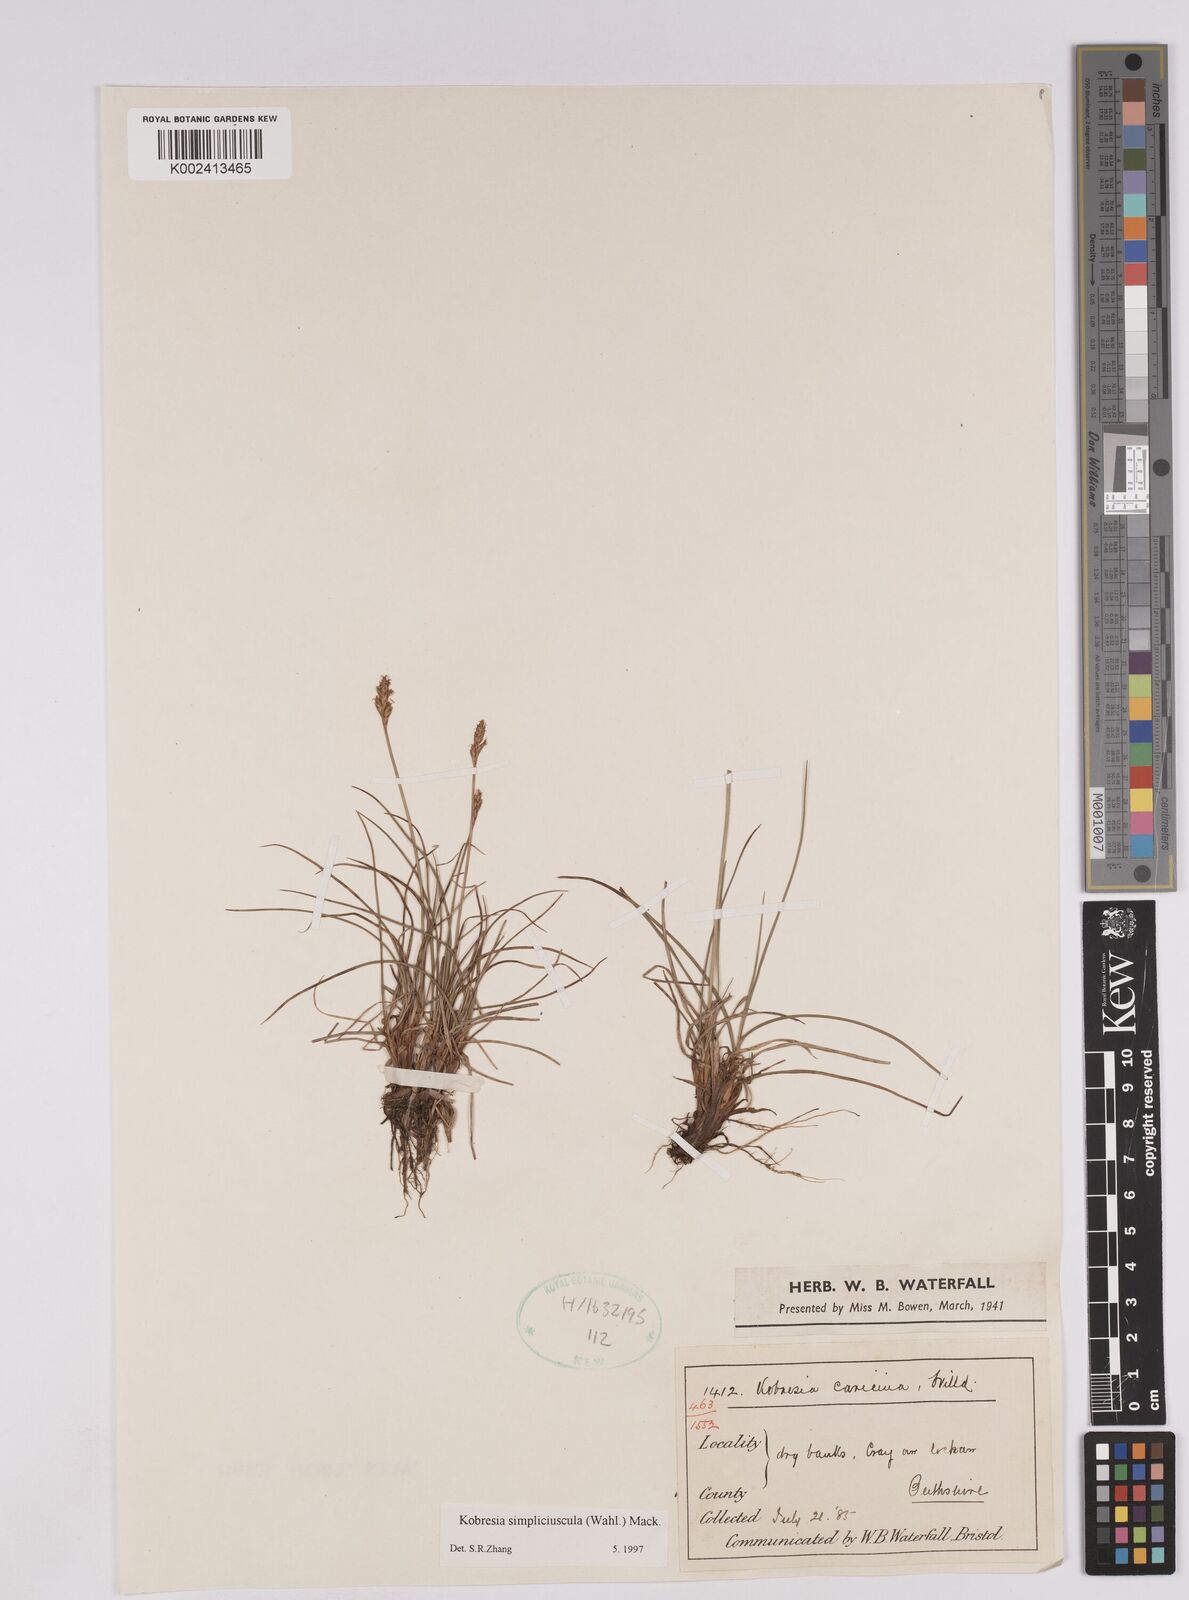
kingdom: Plantae
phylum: Tracheophyta
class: Liliopsida
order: Poales
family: Cyperaceae
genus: Carex
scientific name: Carex simpliciuscula
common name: Simple bog sedge
